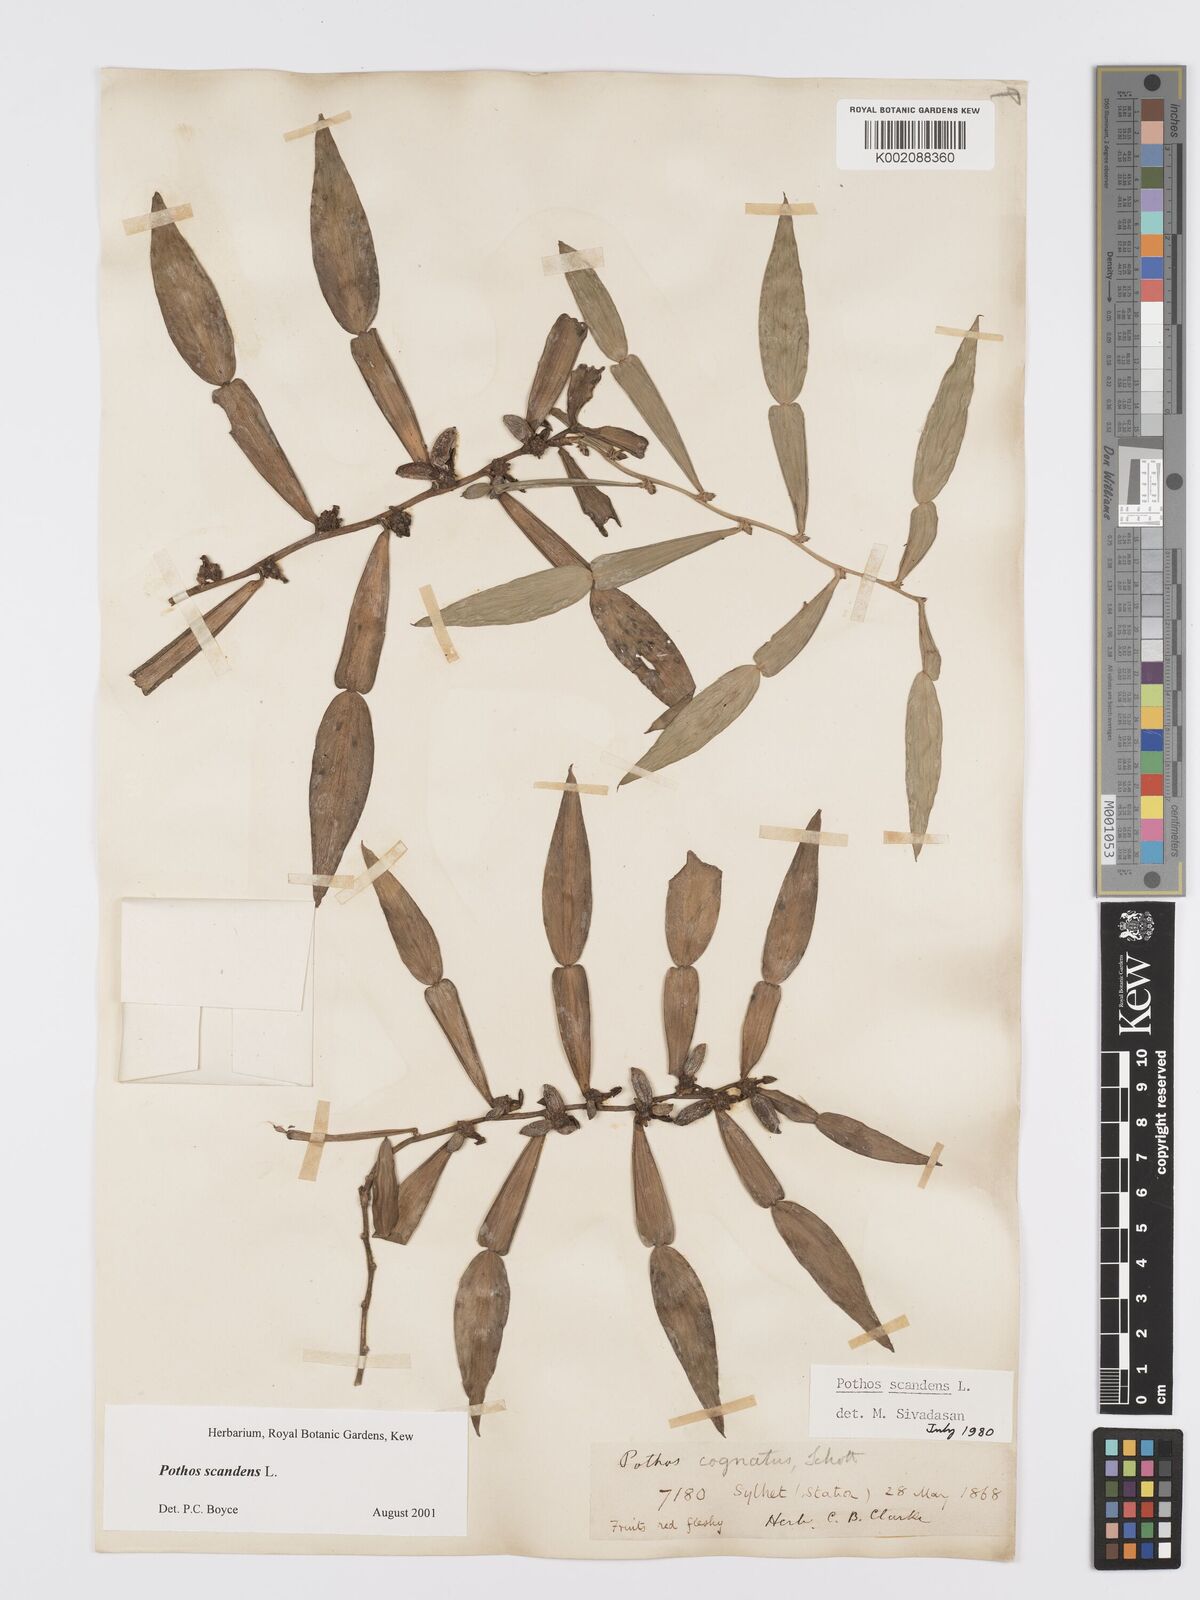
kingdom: Plantae
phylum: Tracheophyta
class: Liliopsida
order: Alismatales
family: Araceae
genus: Pothos
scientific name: Pothos scandens
